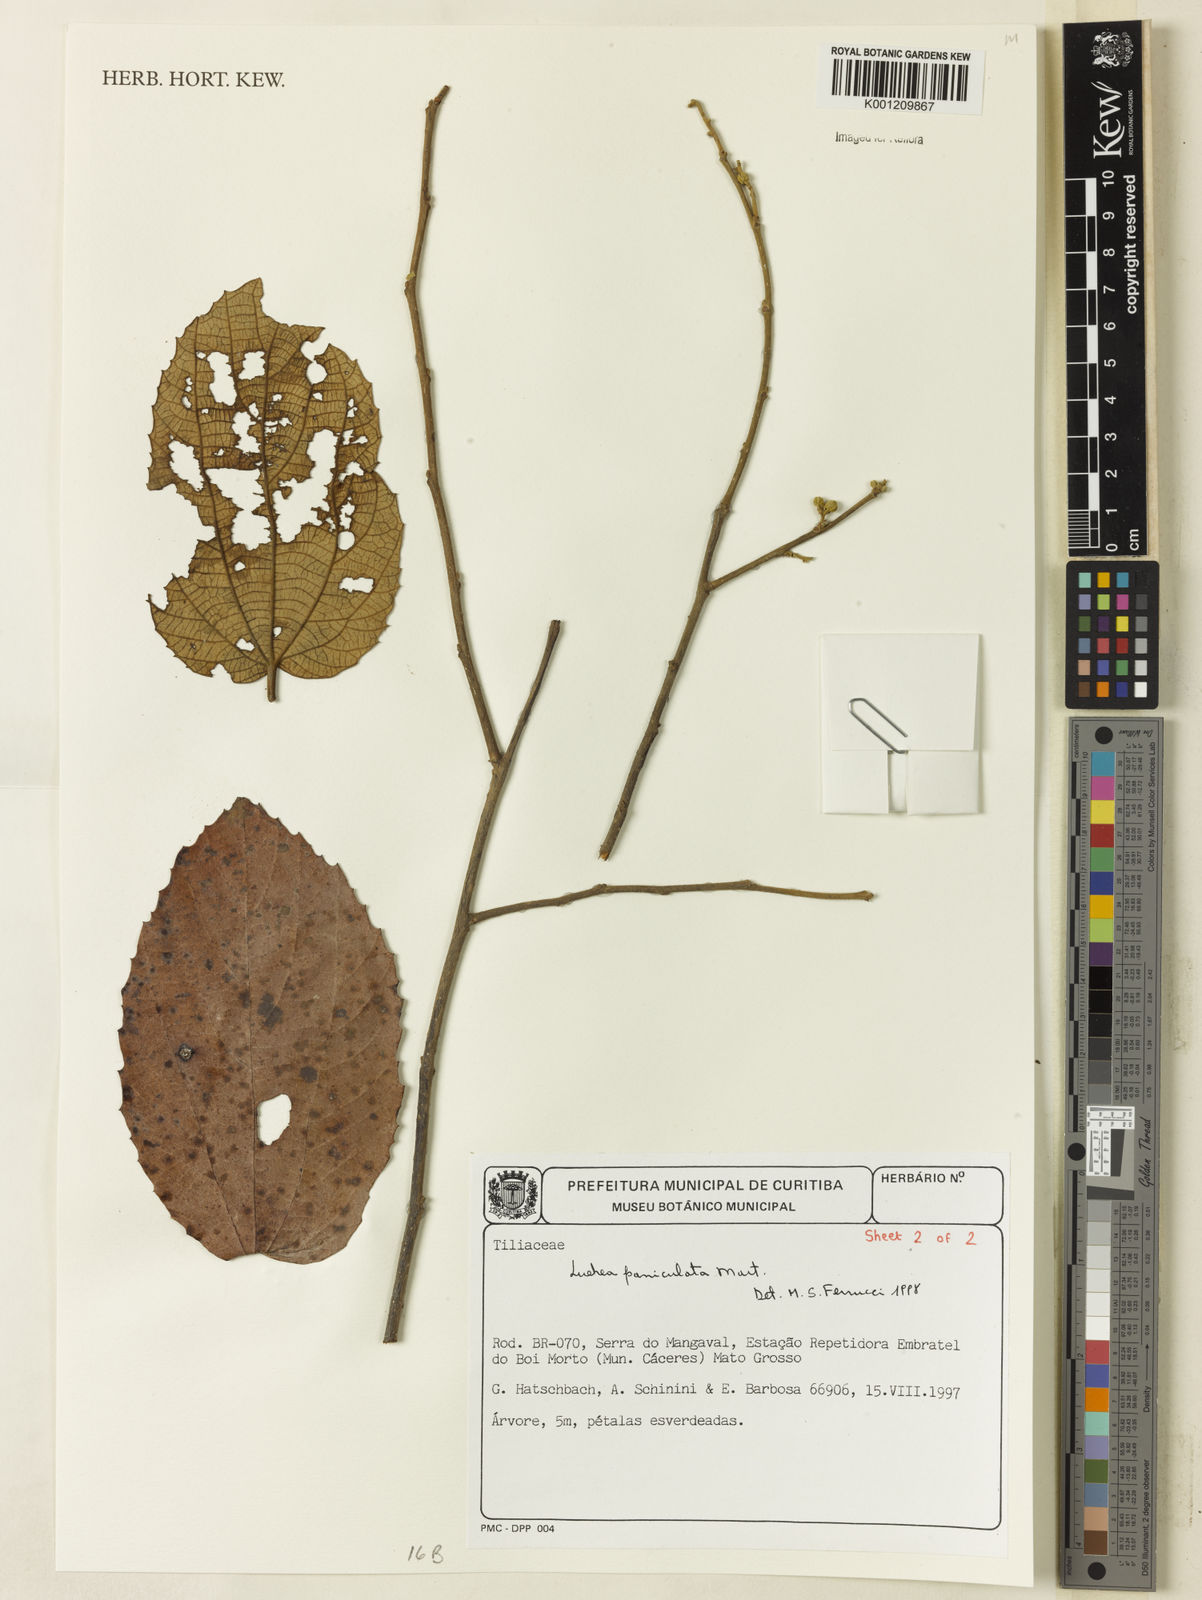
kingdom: Plantae
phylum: Tracheophyta
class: Magnoliopsida
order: Malvales
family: Malvaceae
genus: Luehea
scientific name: Luehea paniculata
